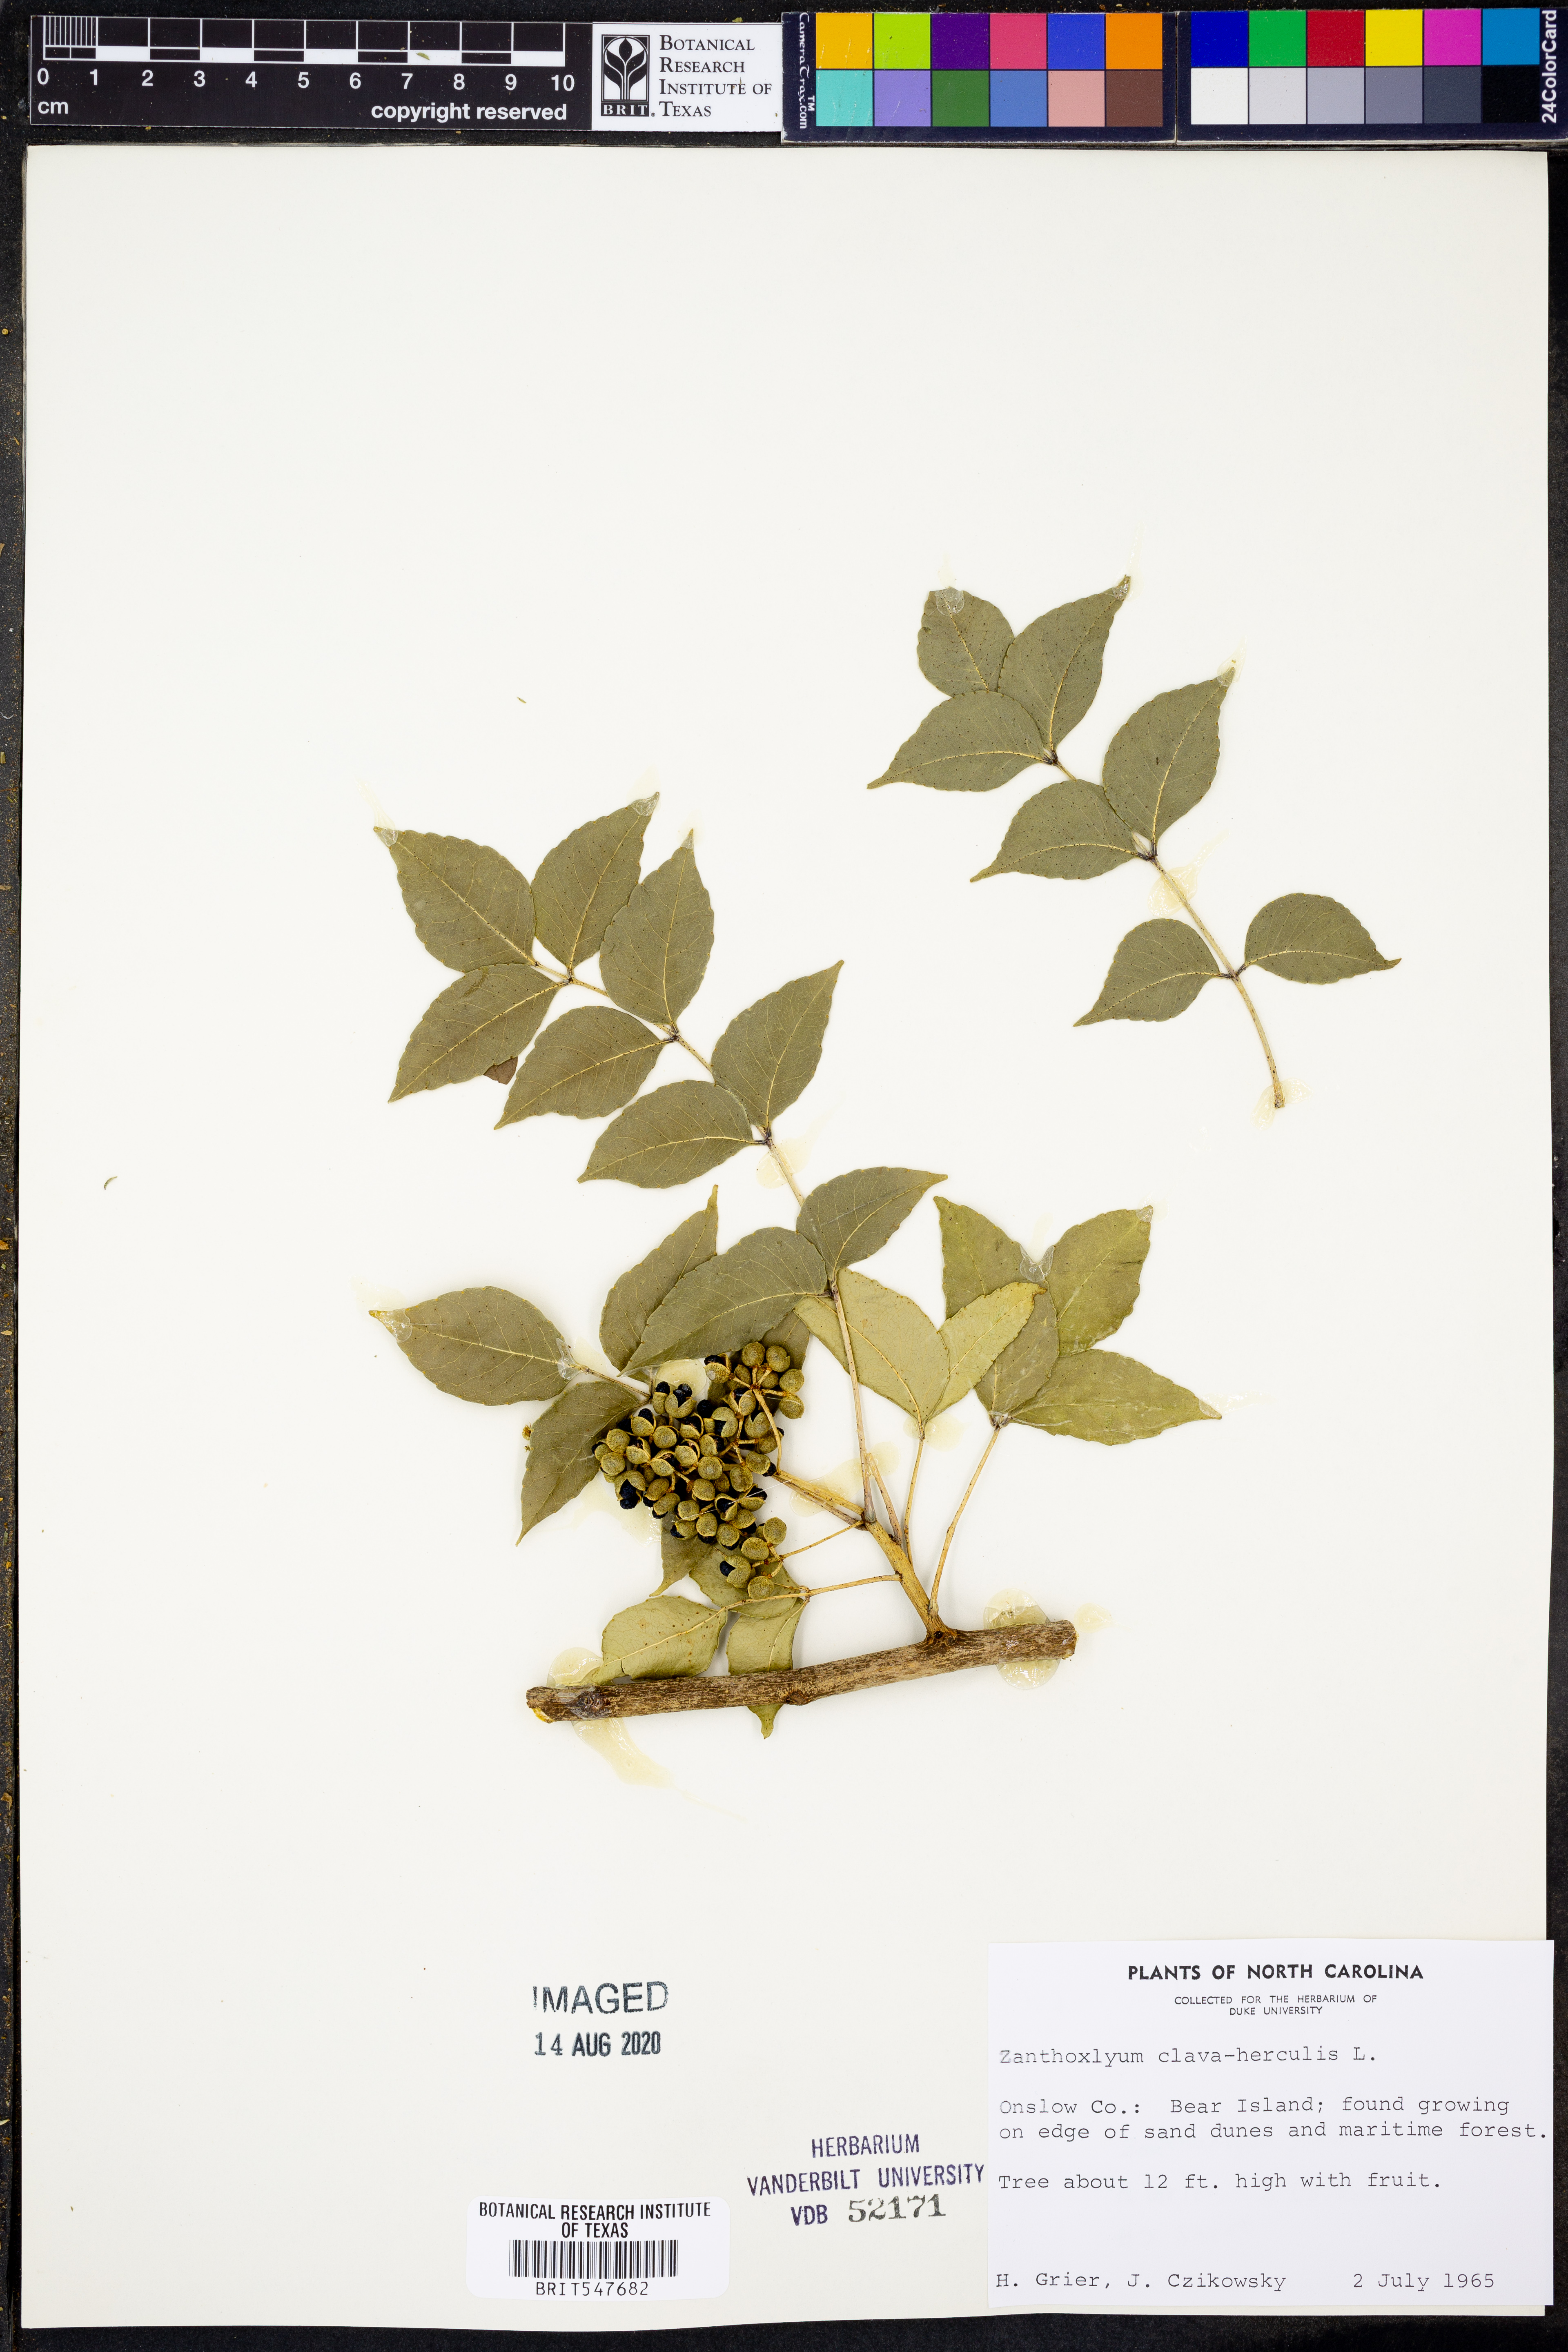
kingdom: Plantae
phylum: Tracheophyta
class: Magnoliopsida
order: Sapindales
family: Rutaceae
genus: Zanthoxylum
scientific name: Zanthoxylum avicennae
